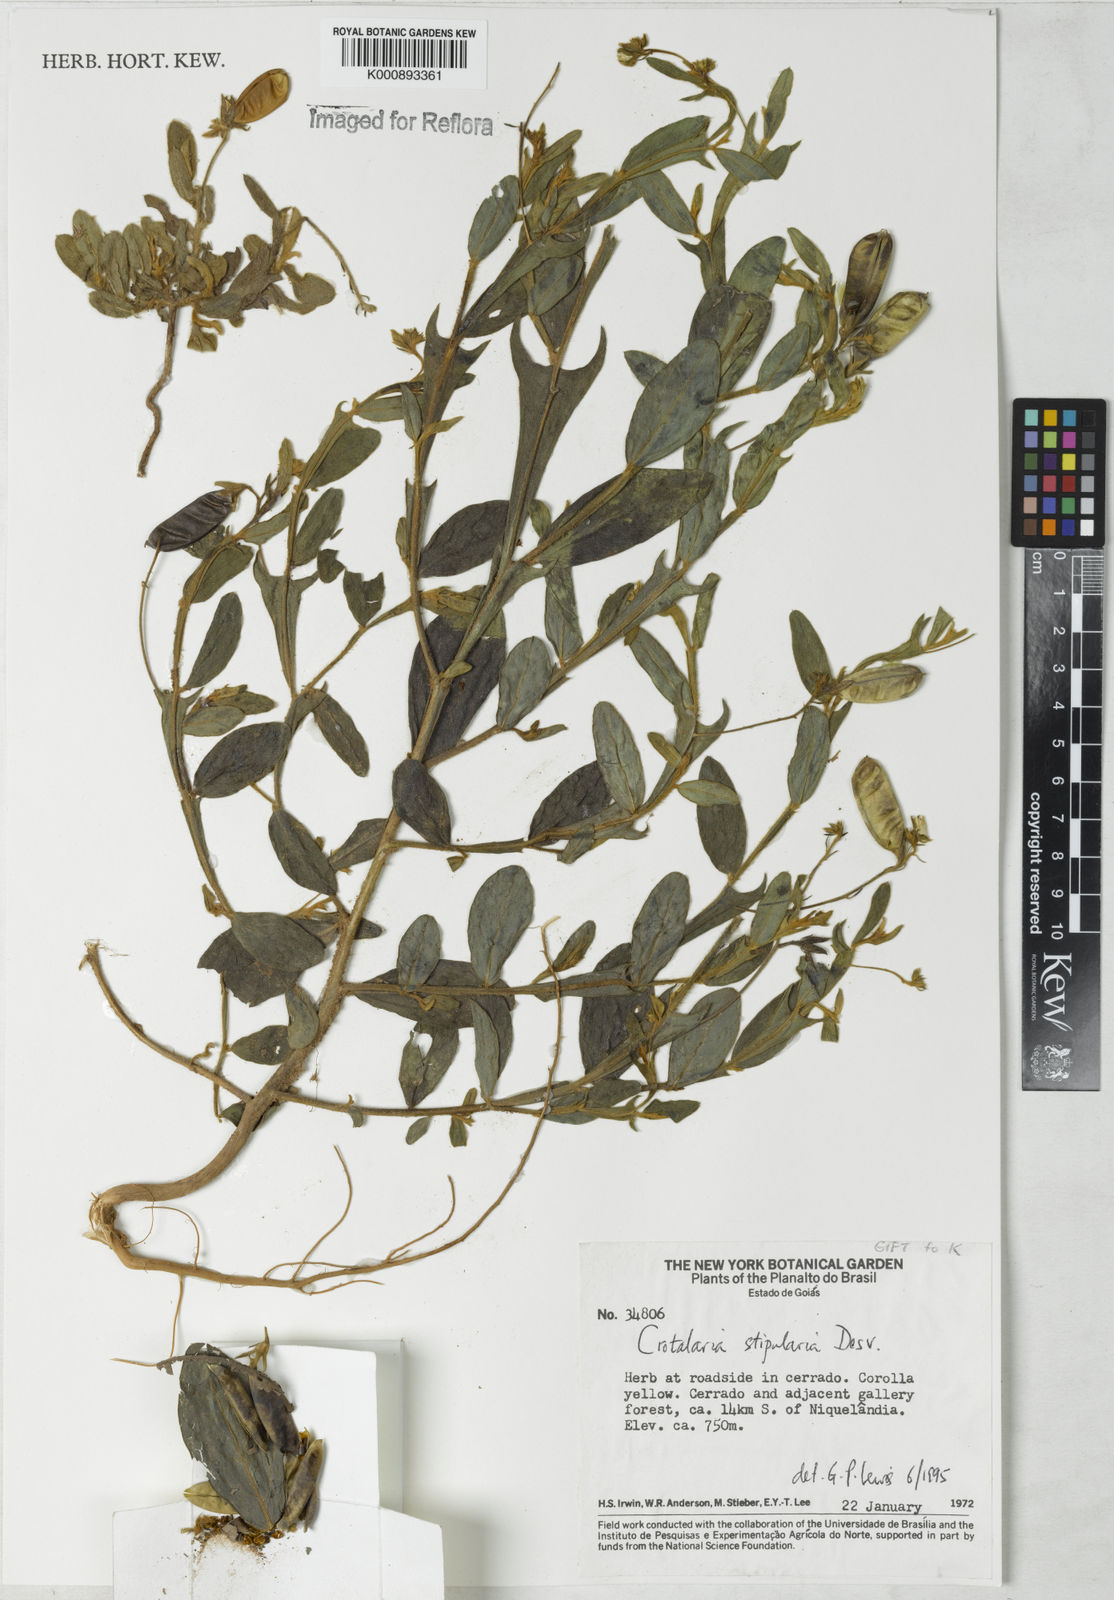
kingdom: Plantae
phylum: Tracheophyta
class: Magnoliopsida
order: Fabales
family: Fabaceae
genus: Crotalaria
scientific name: Crotalaria stipularia
